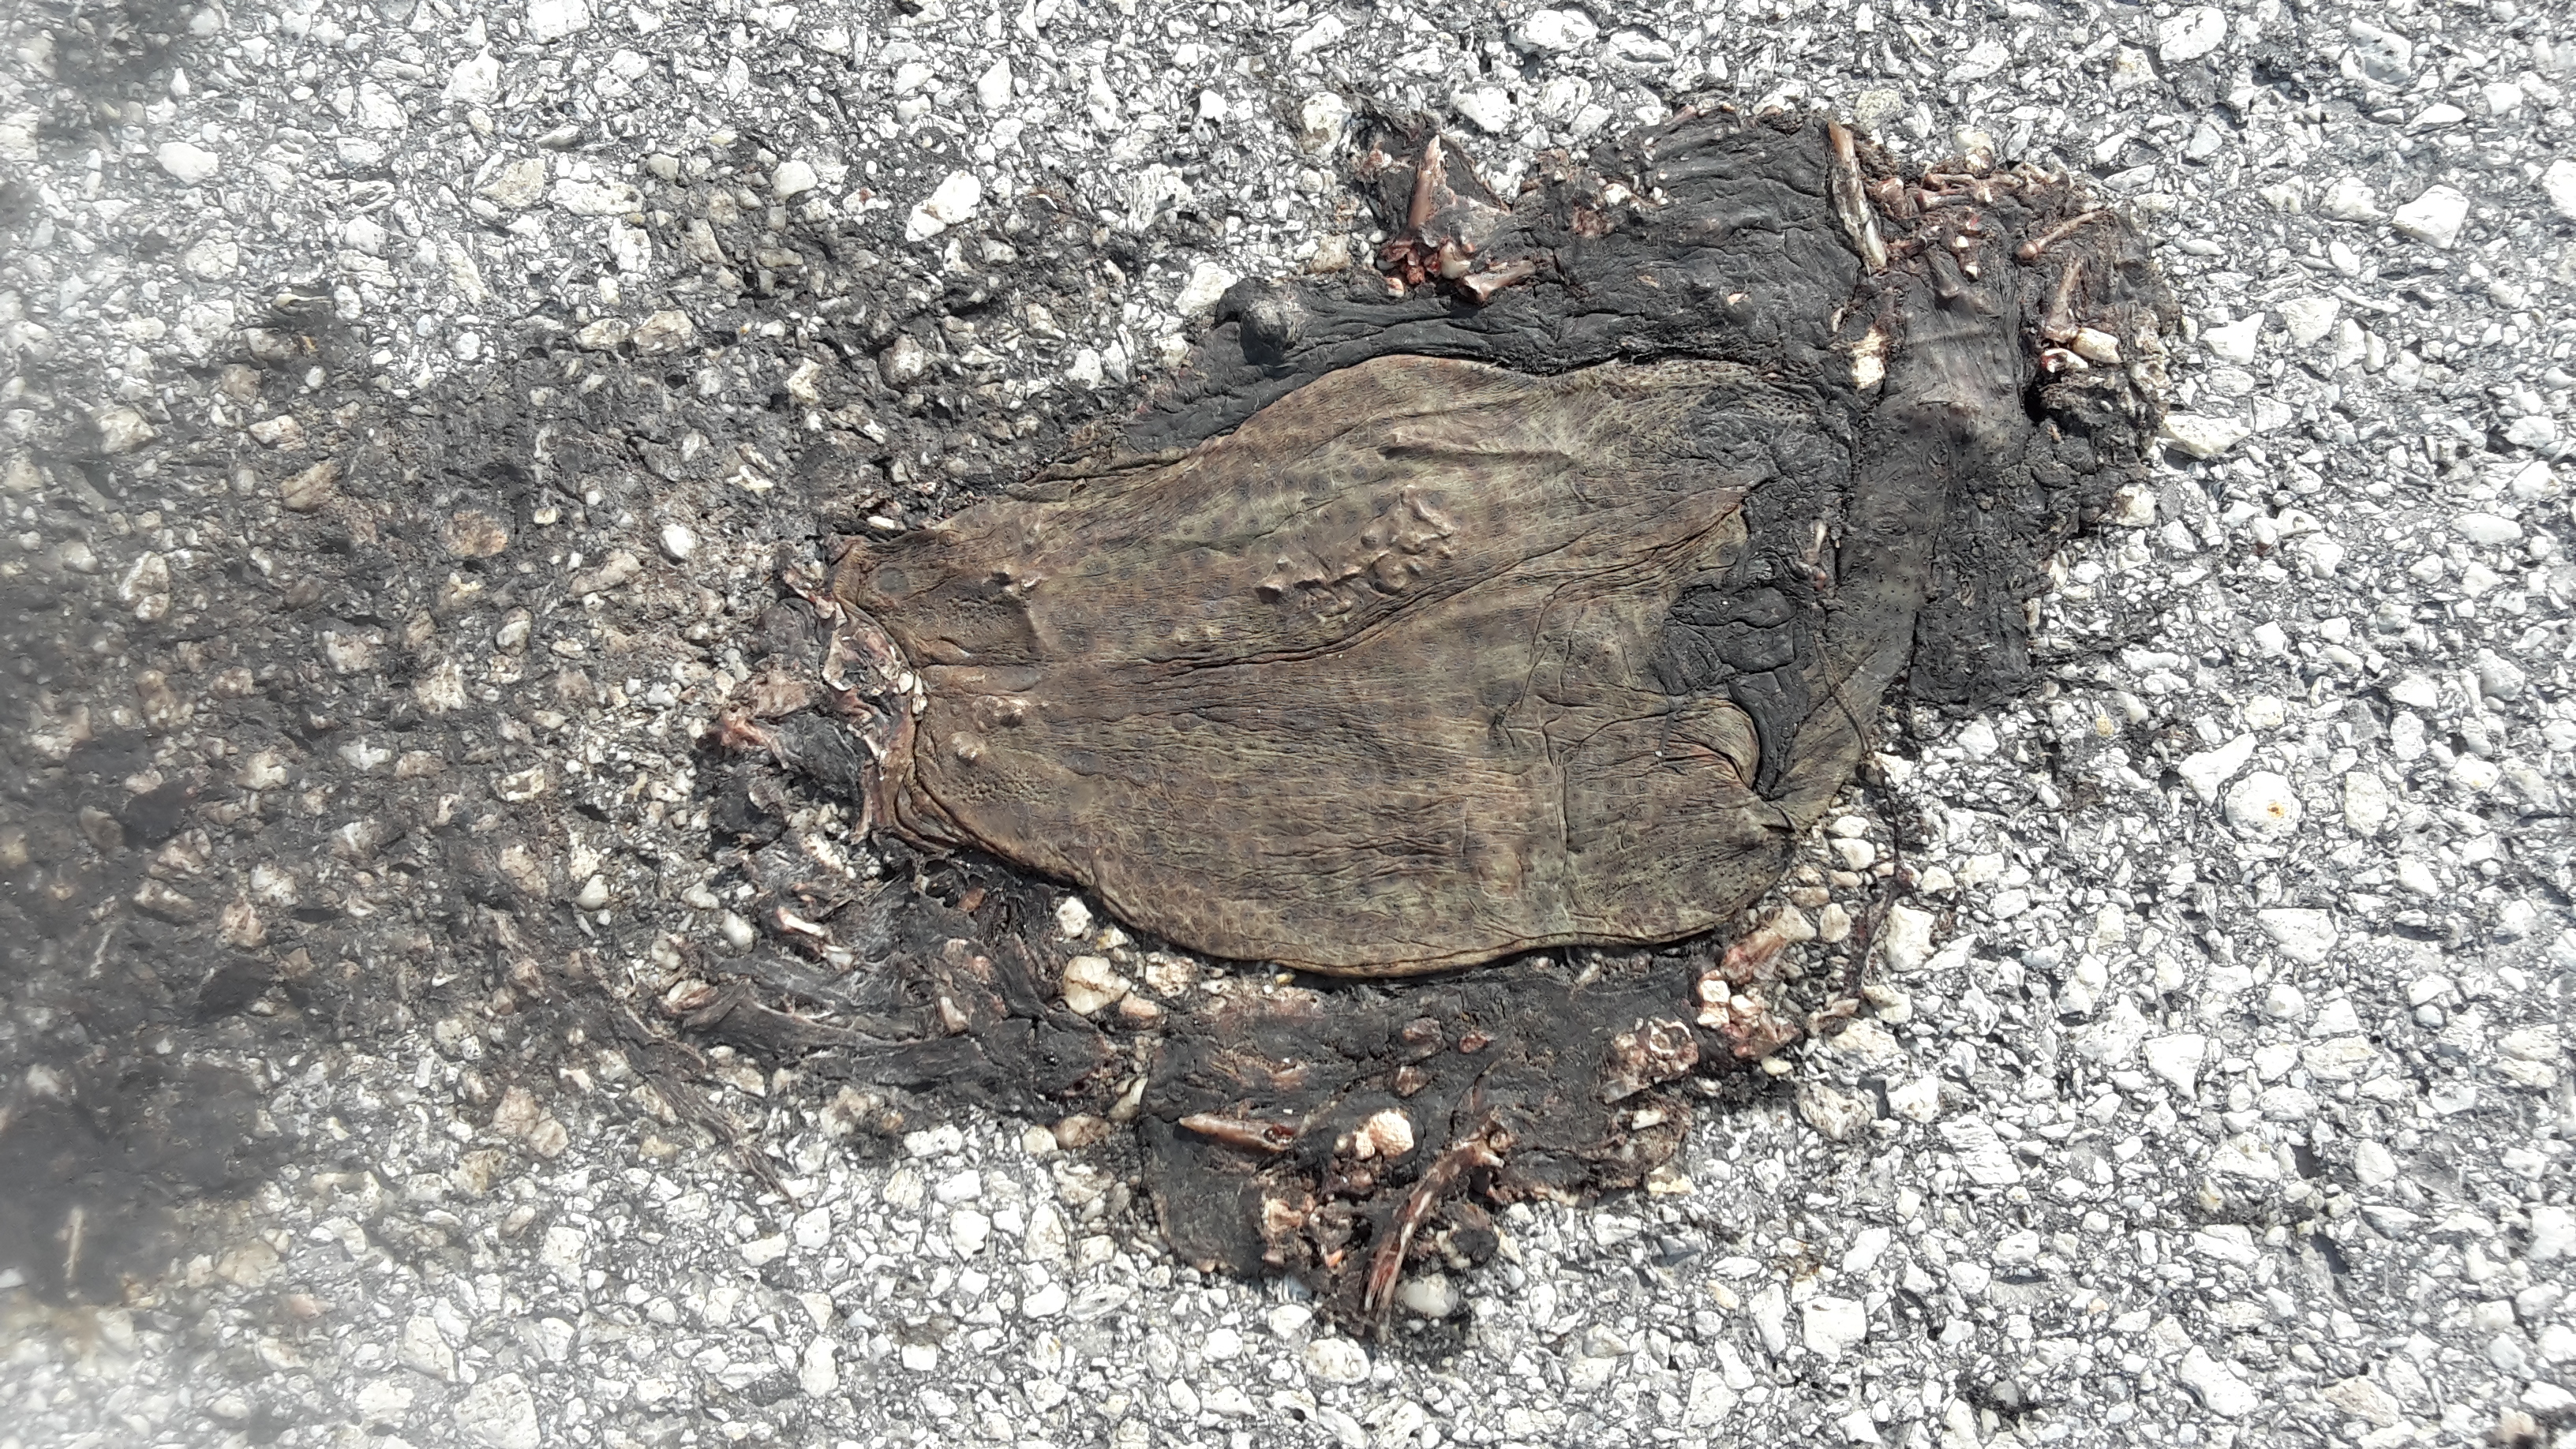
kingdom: Animalia
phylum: Chordata
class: Amphibia
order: Anura
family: Bufonidae
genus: Bufo
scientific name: Bufo bufo
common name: Common toad
